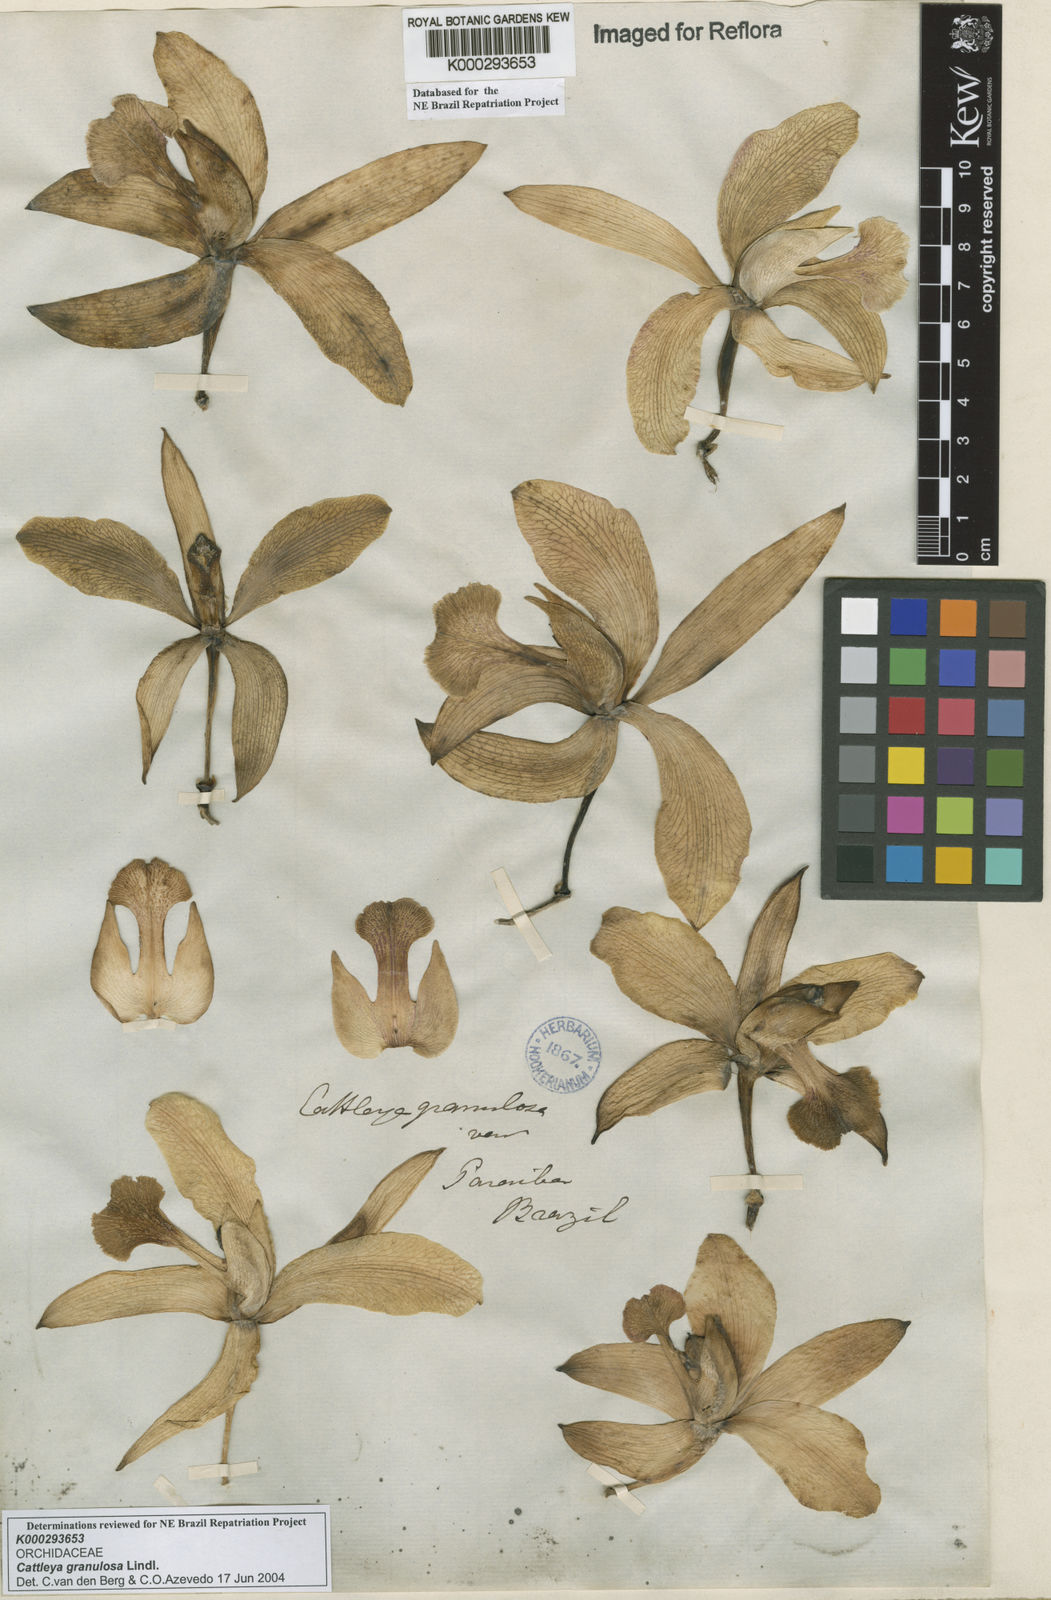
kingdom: Plantae
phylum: Tracheophyta
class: Liliopsida
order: Asparagales
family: Orchidaceae
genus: Cattleya
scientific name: Cattleya granulosa
